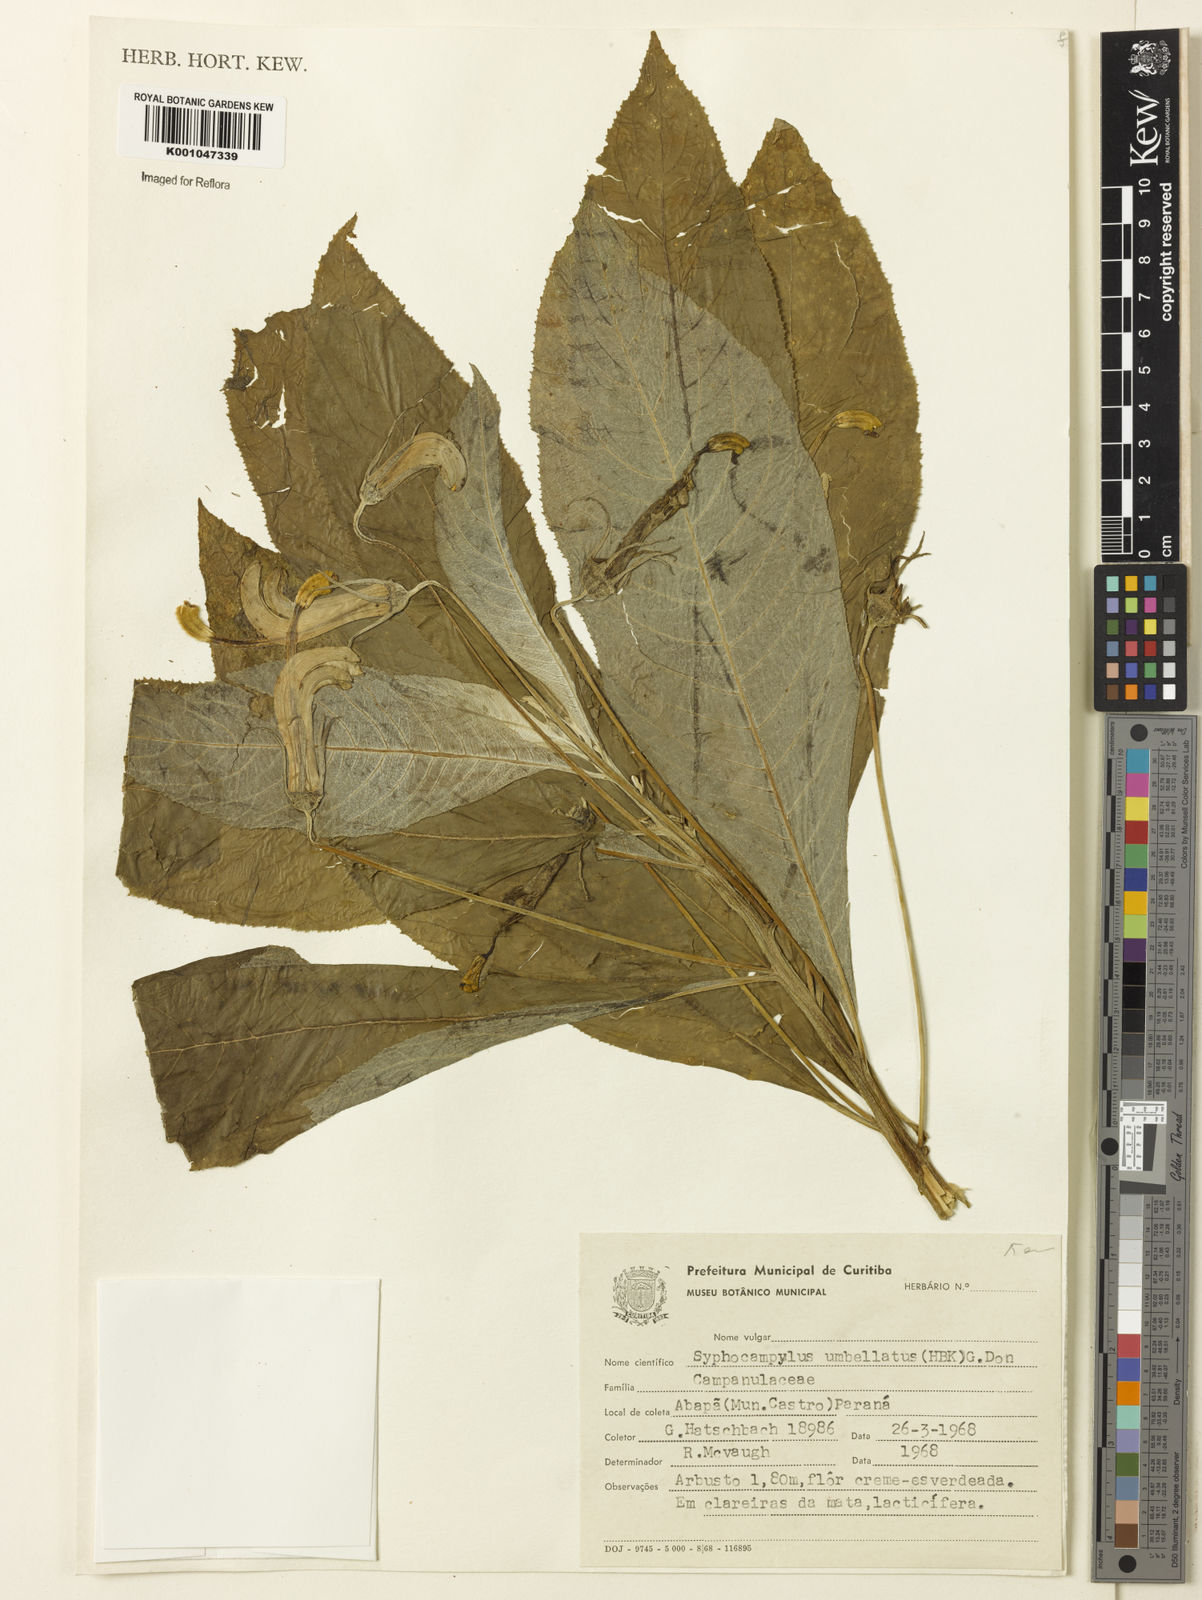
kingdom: Plantae
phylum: Tracheophyta
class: Magnoliopsida
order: Asterales
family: Campanulaceae
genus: Siphocampylus
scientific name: Siphocampylus umbellatus
